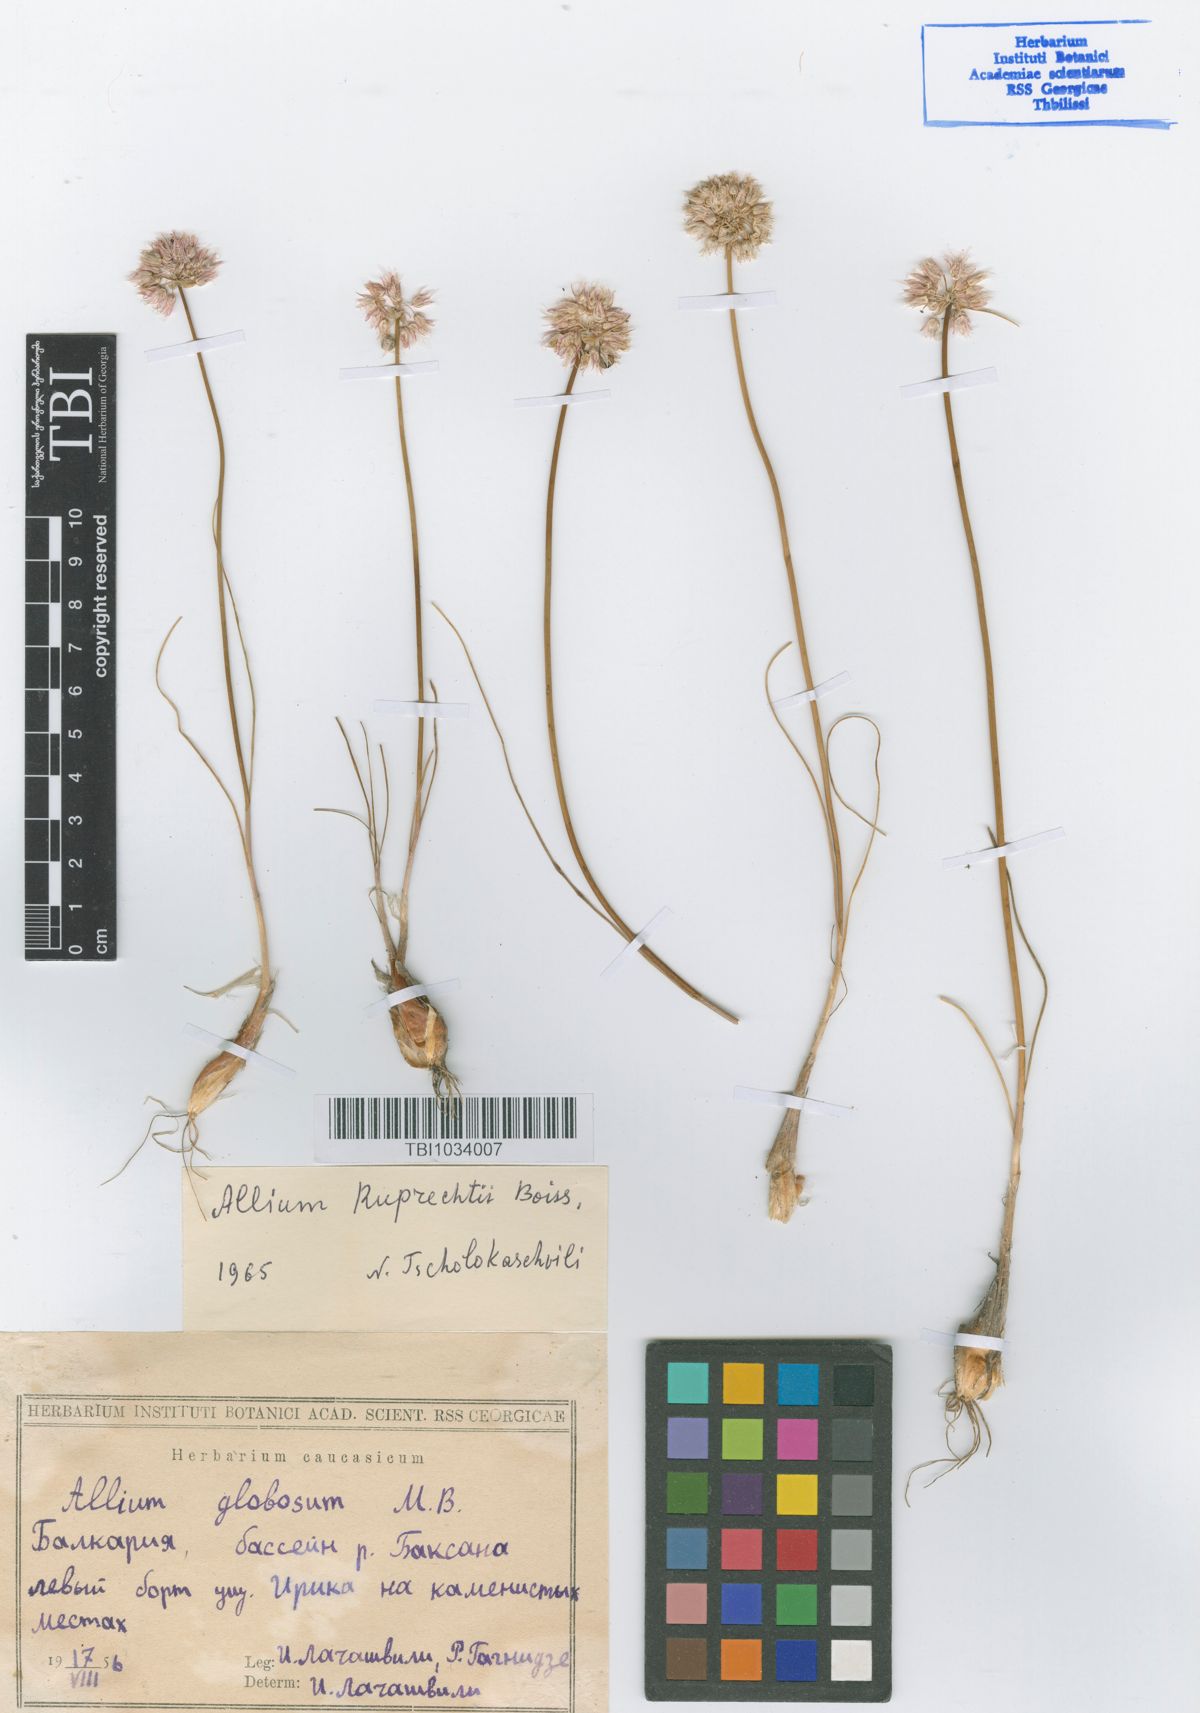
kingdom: Plantae
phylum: Tracheophyta
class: Liliopsida
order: Asparagales
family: Amaryllidaceae
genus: Allium
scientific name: Allium saxatile
